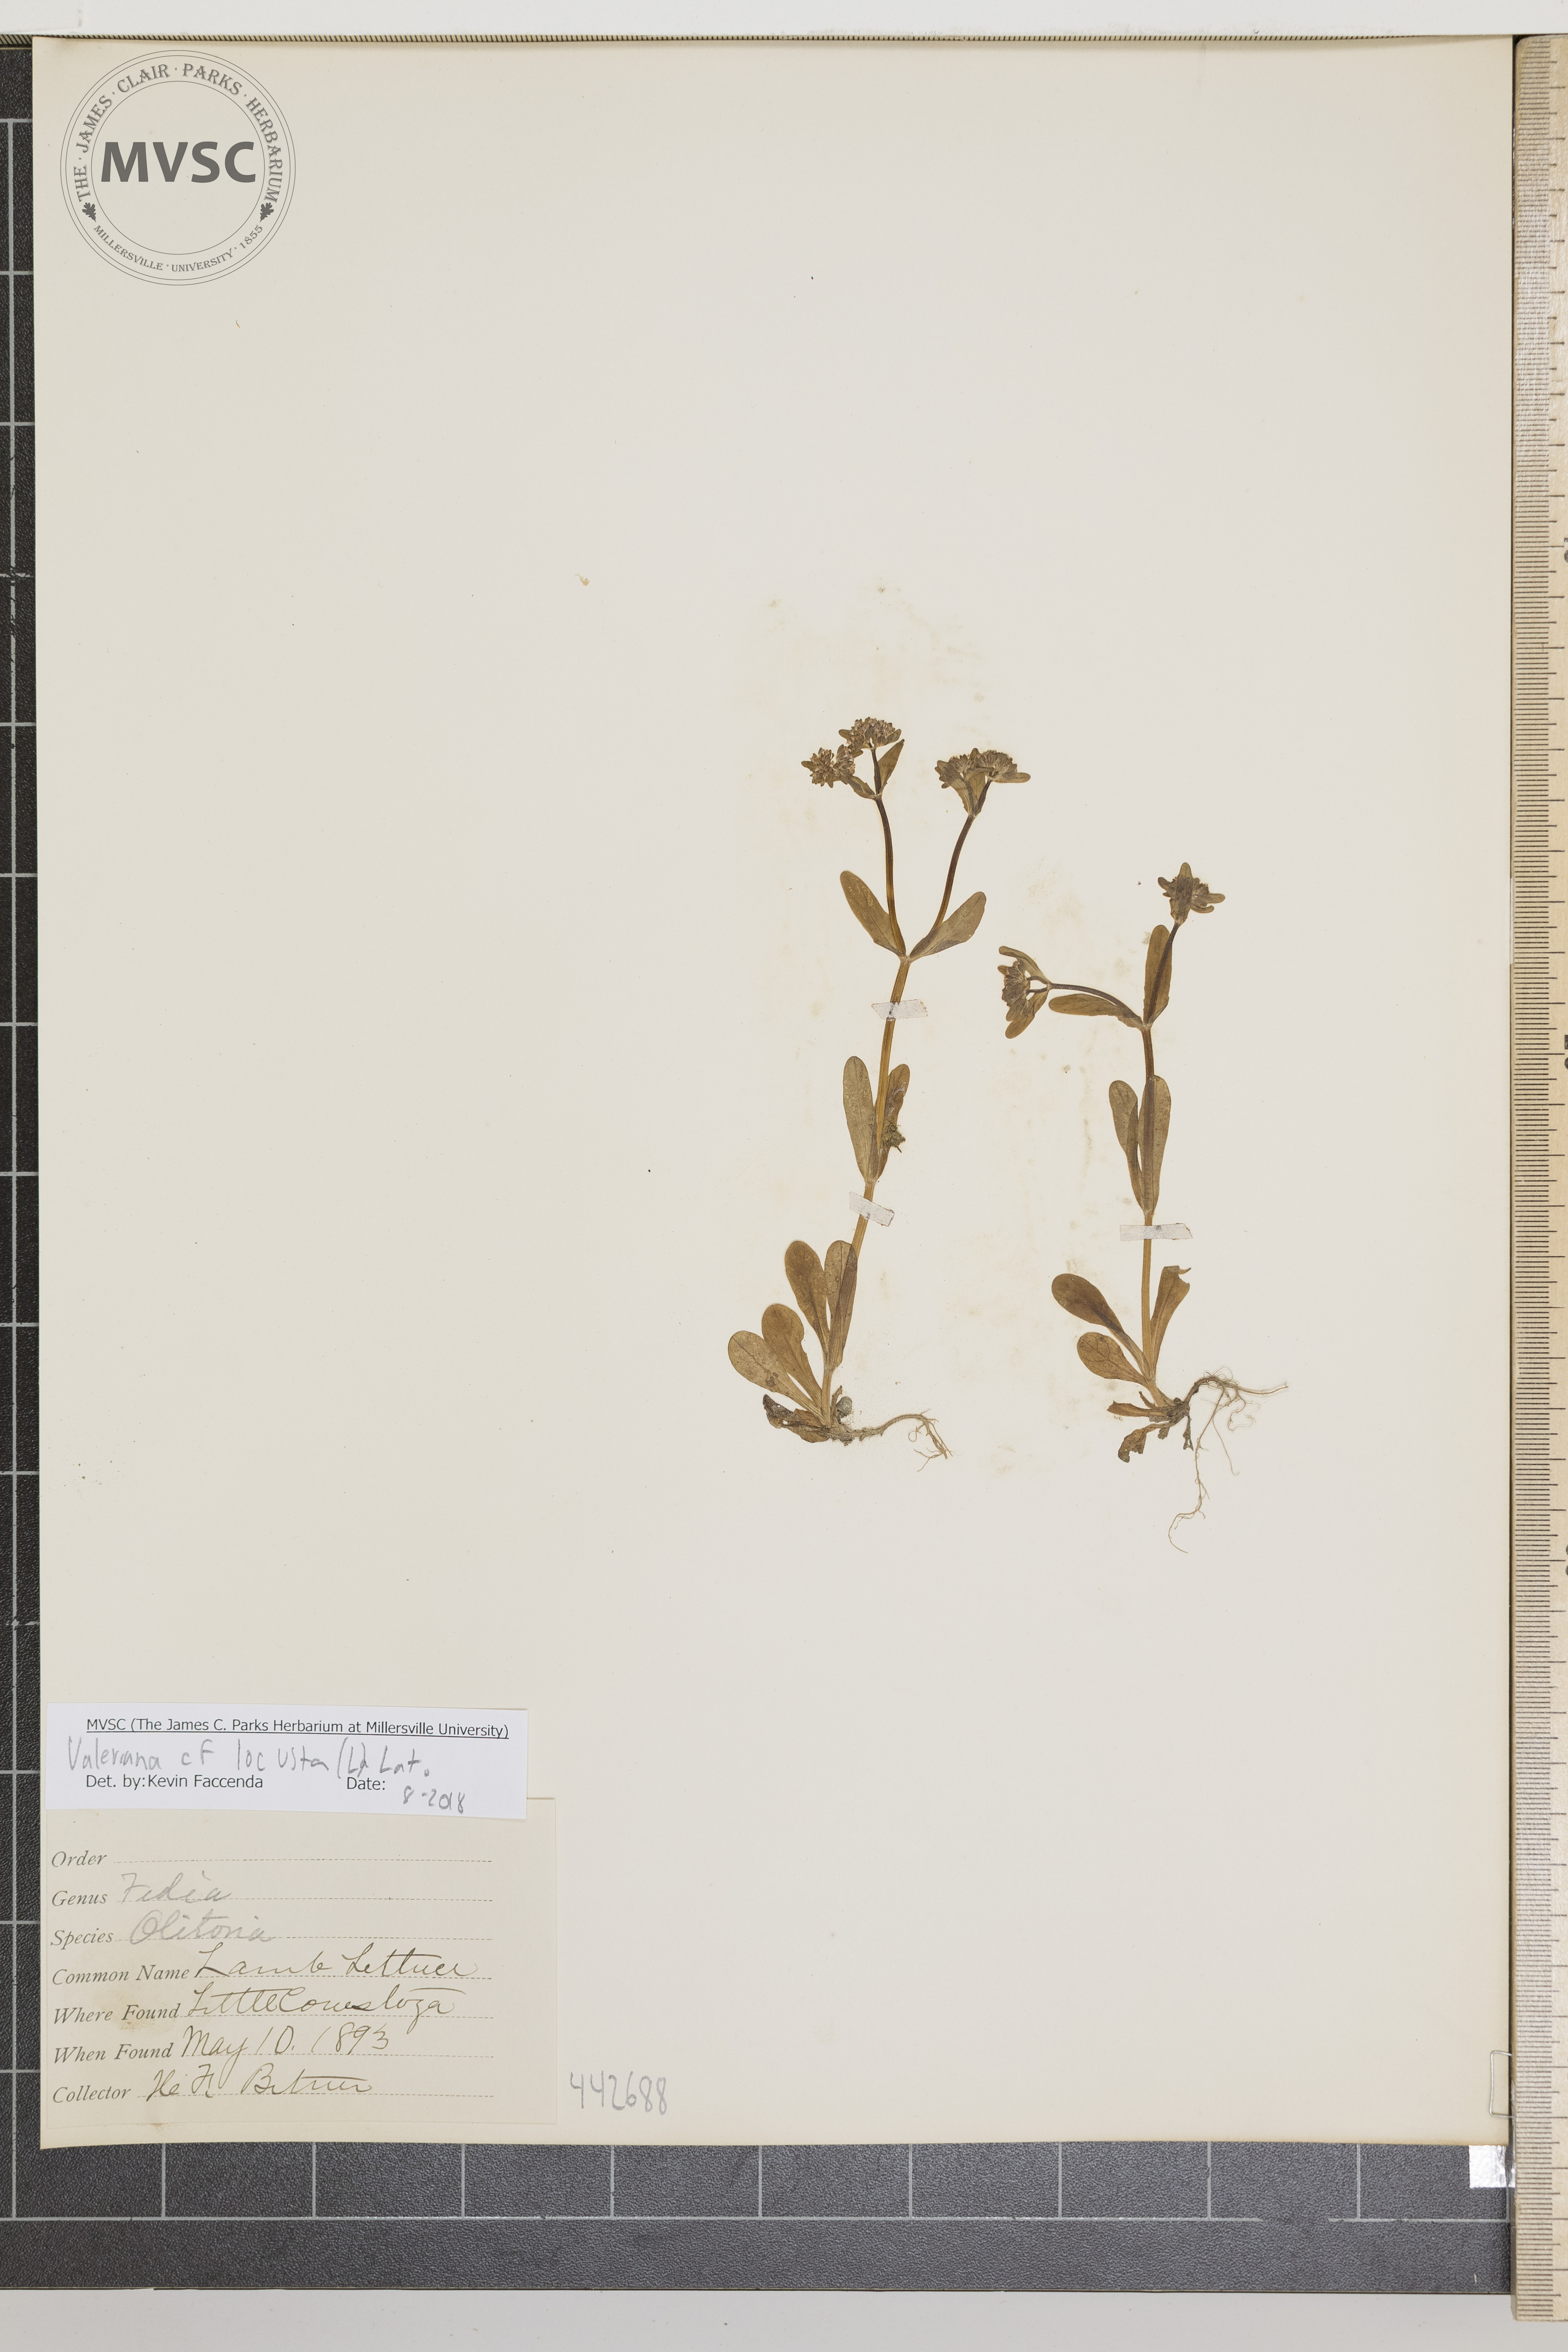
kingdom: Plantae
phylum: Tracheophyta
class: Magnoliopsida
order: Dipsacales
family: Caprifoliaceae
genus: Valerianella
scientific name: Valerianella locusta
